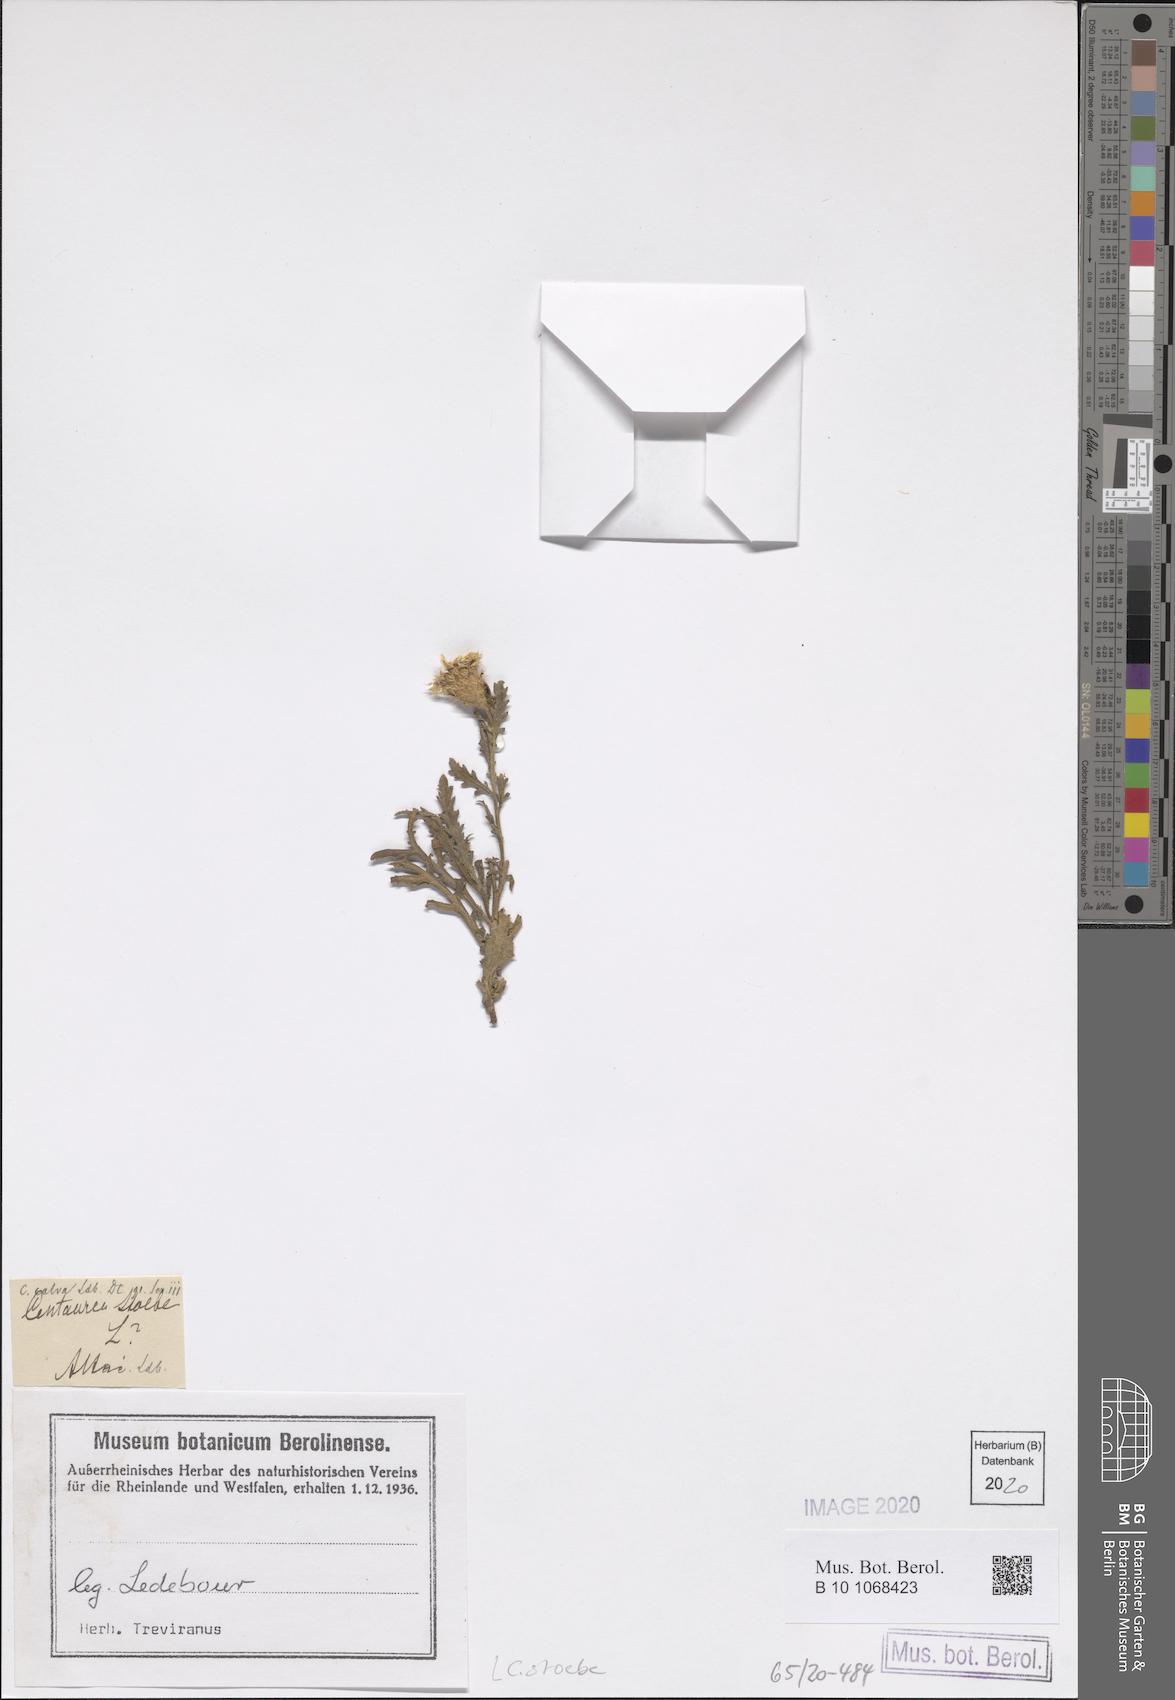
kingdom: Plantae
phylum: Tracheophyta
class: Magnoliopsida
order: Asterales
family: Asteraceae
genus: Centaurea
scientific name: Centaurea stoebe
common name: Spotted knapweed
